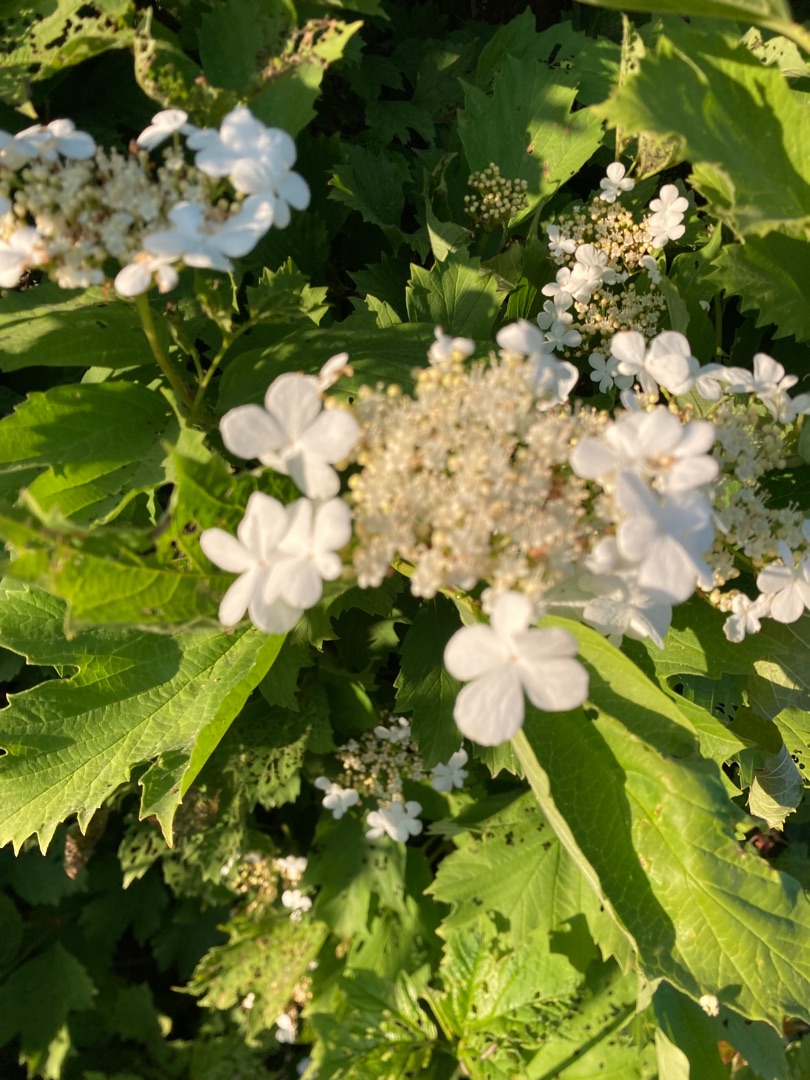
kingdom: Plantae
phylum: Tracheophyta
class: Magnoliopsida
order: Dipsacales
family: Viburnaceae
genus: Viburnum
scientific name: Viburnum opulus
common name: Kvalkved
